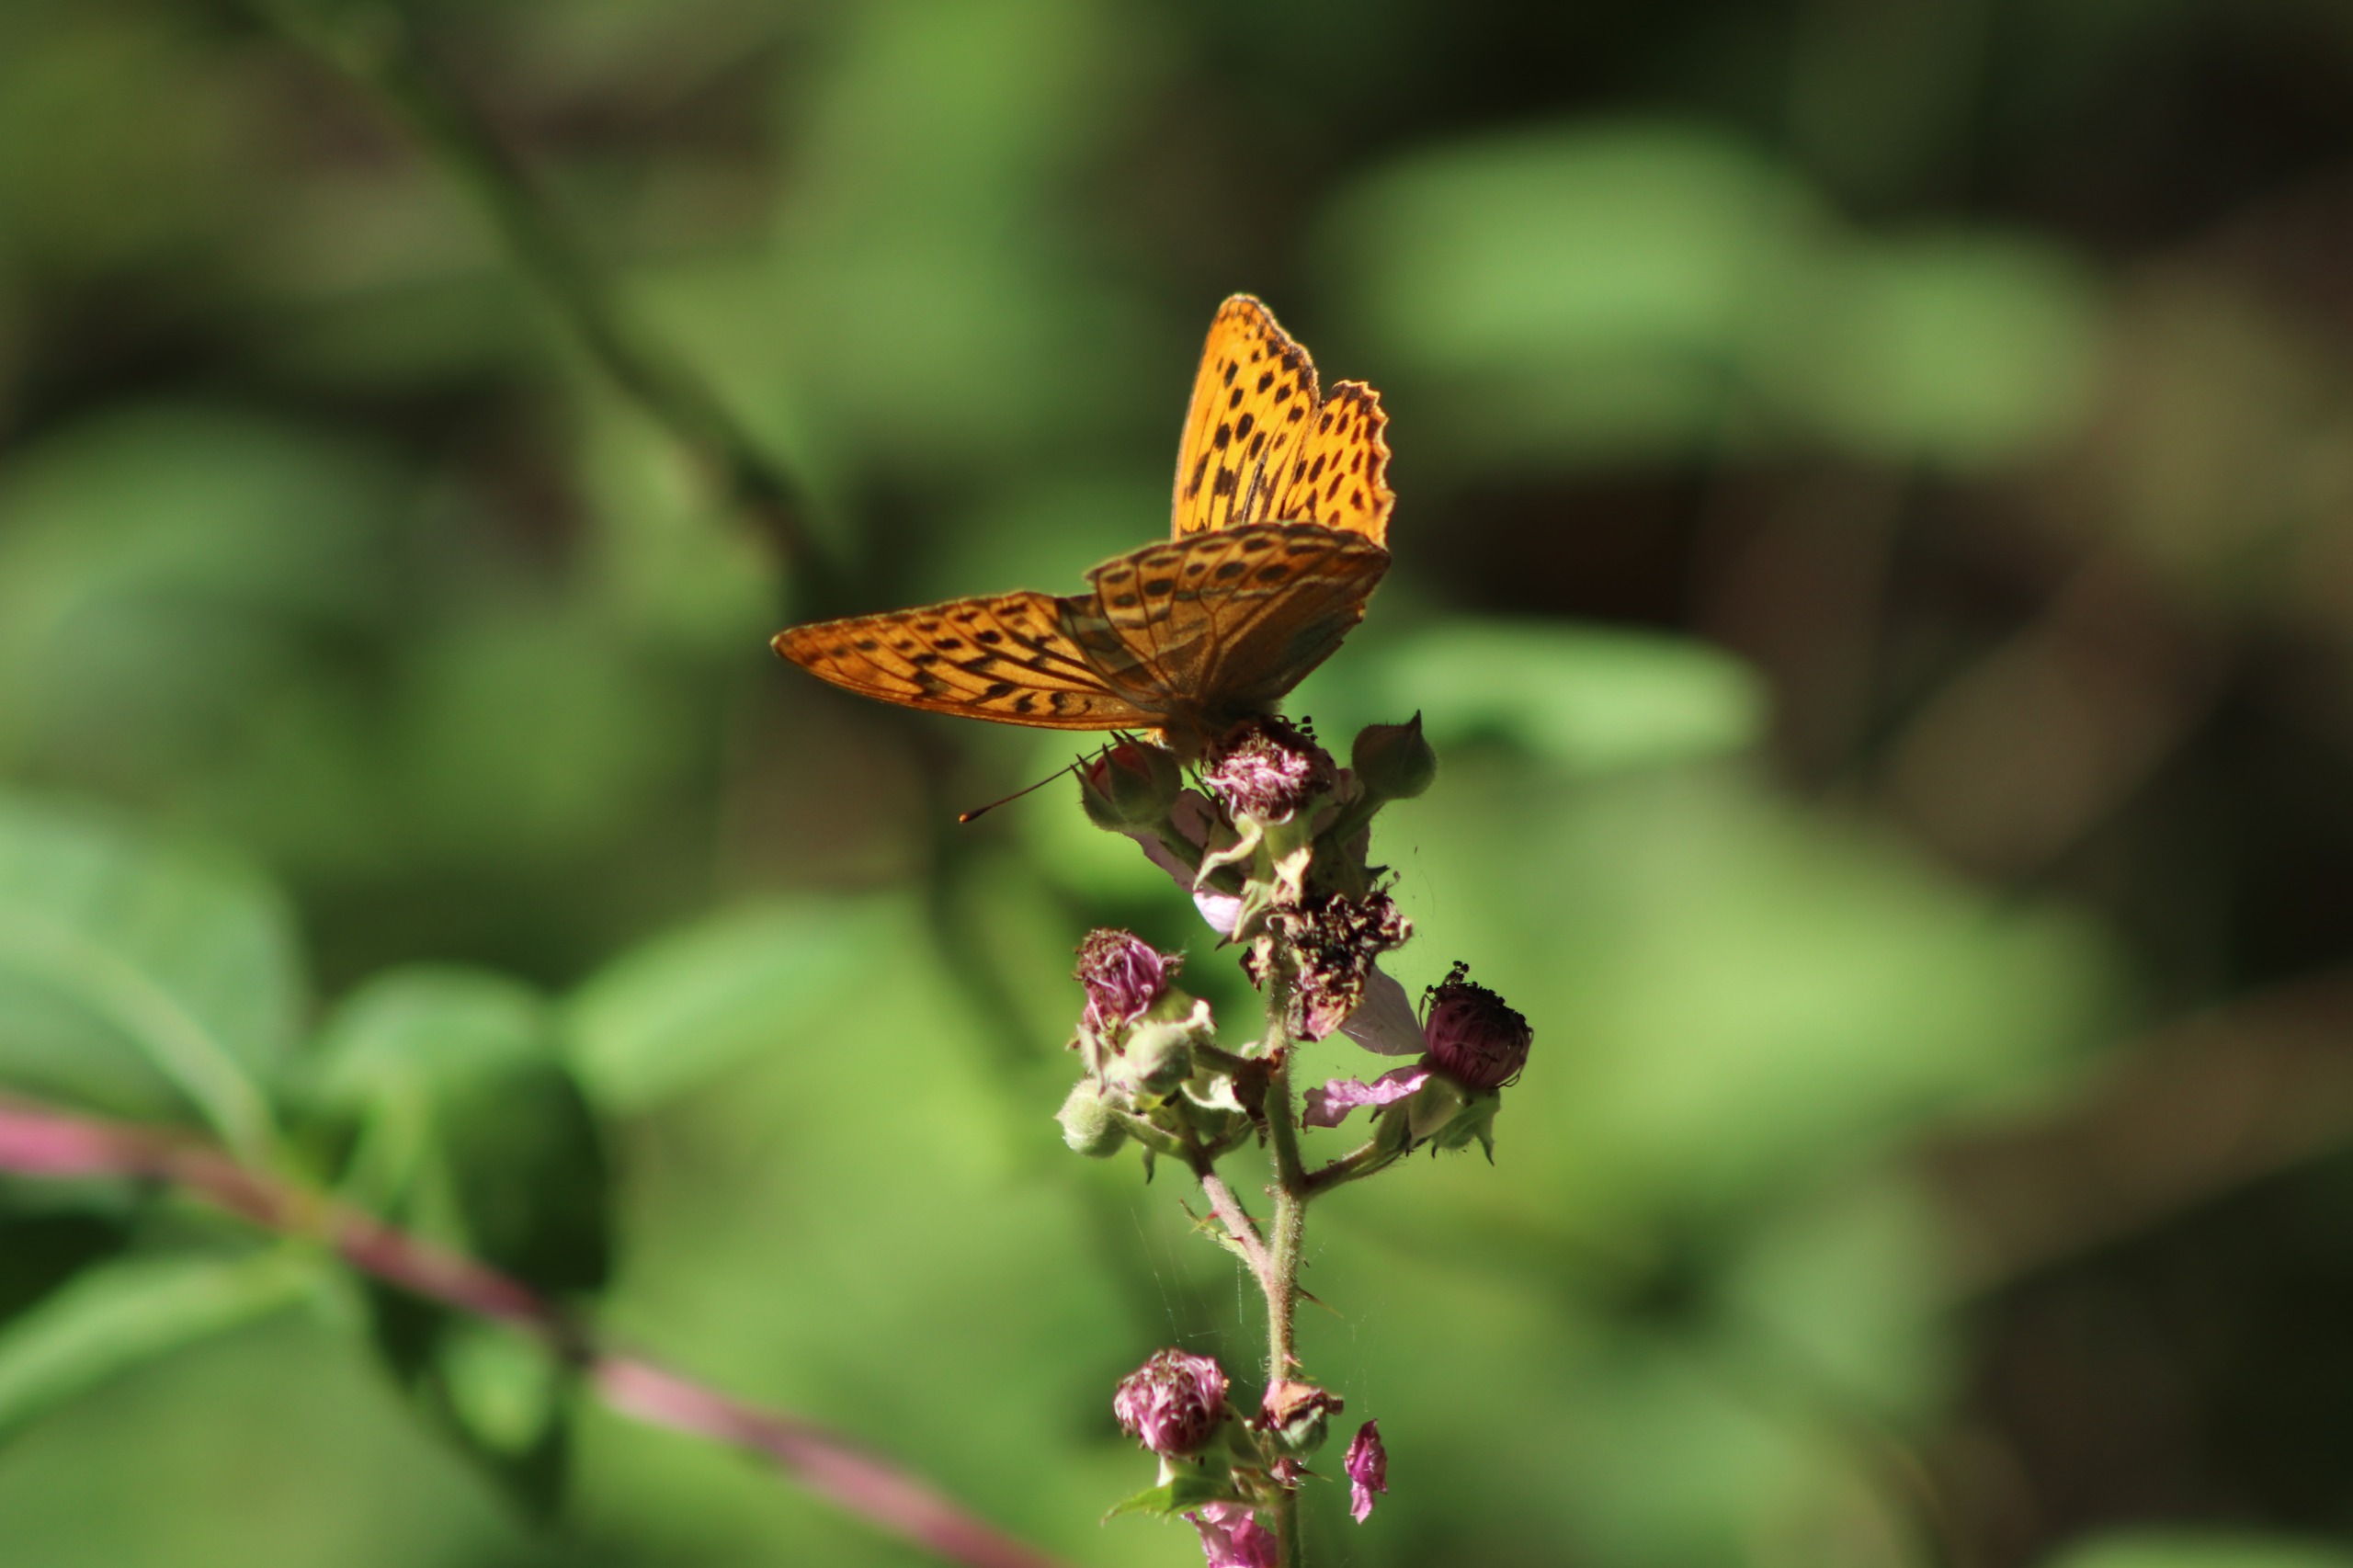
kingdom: Animalia
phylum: Arthropoda
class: Insecta
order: Lepidoptera
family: Nymphalidae
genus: Argynnis
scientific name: Argynnis paphia
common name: Kejserkåbe
